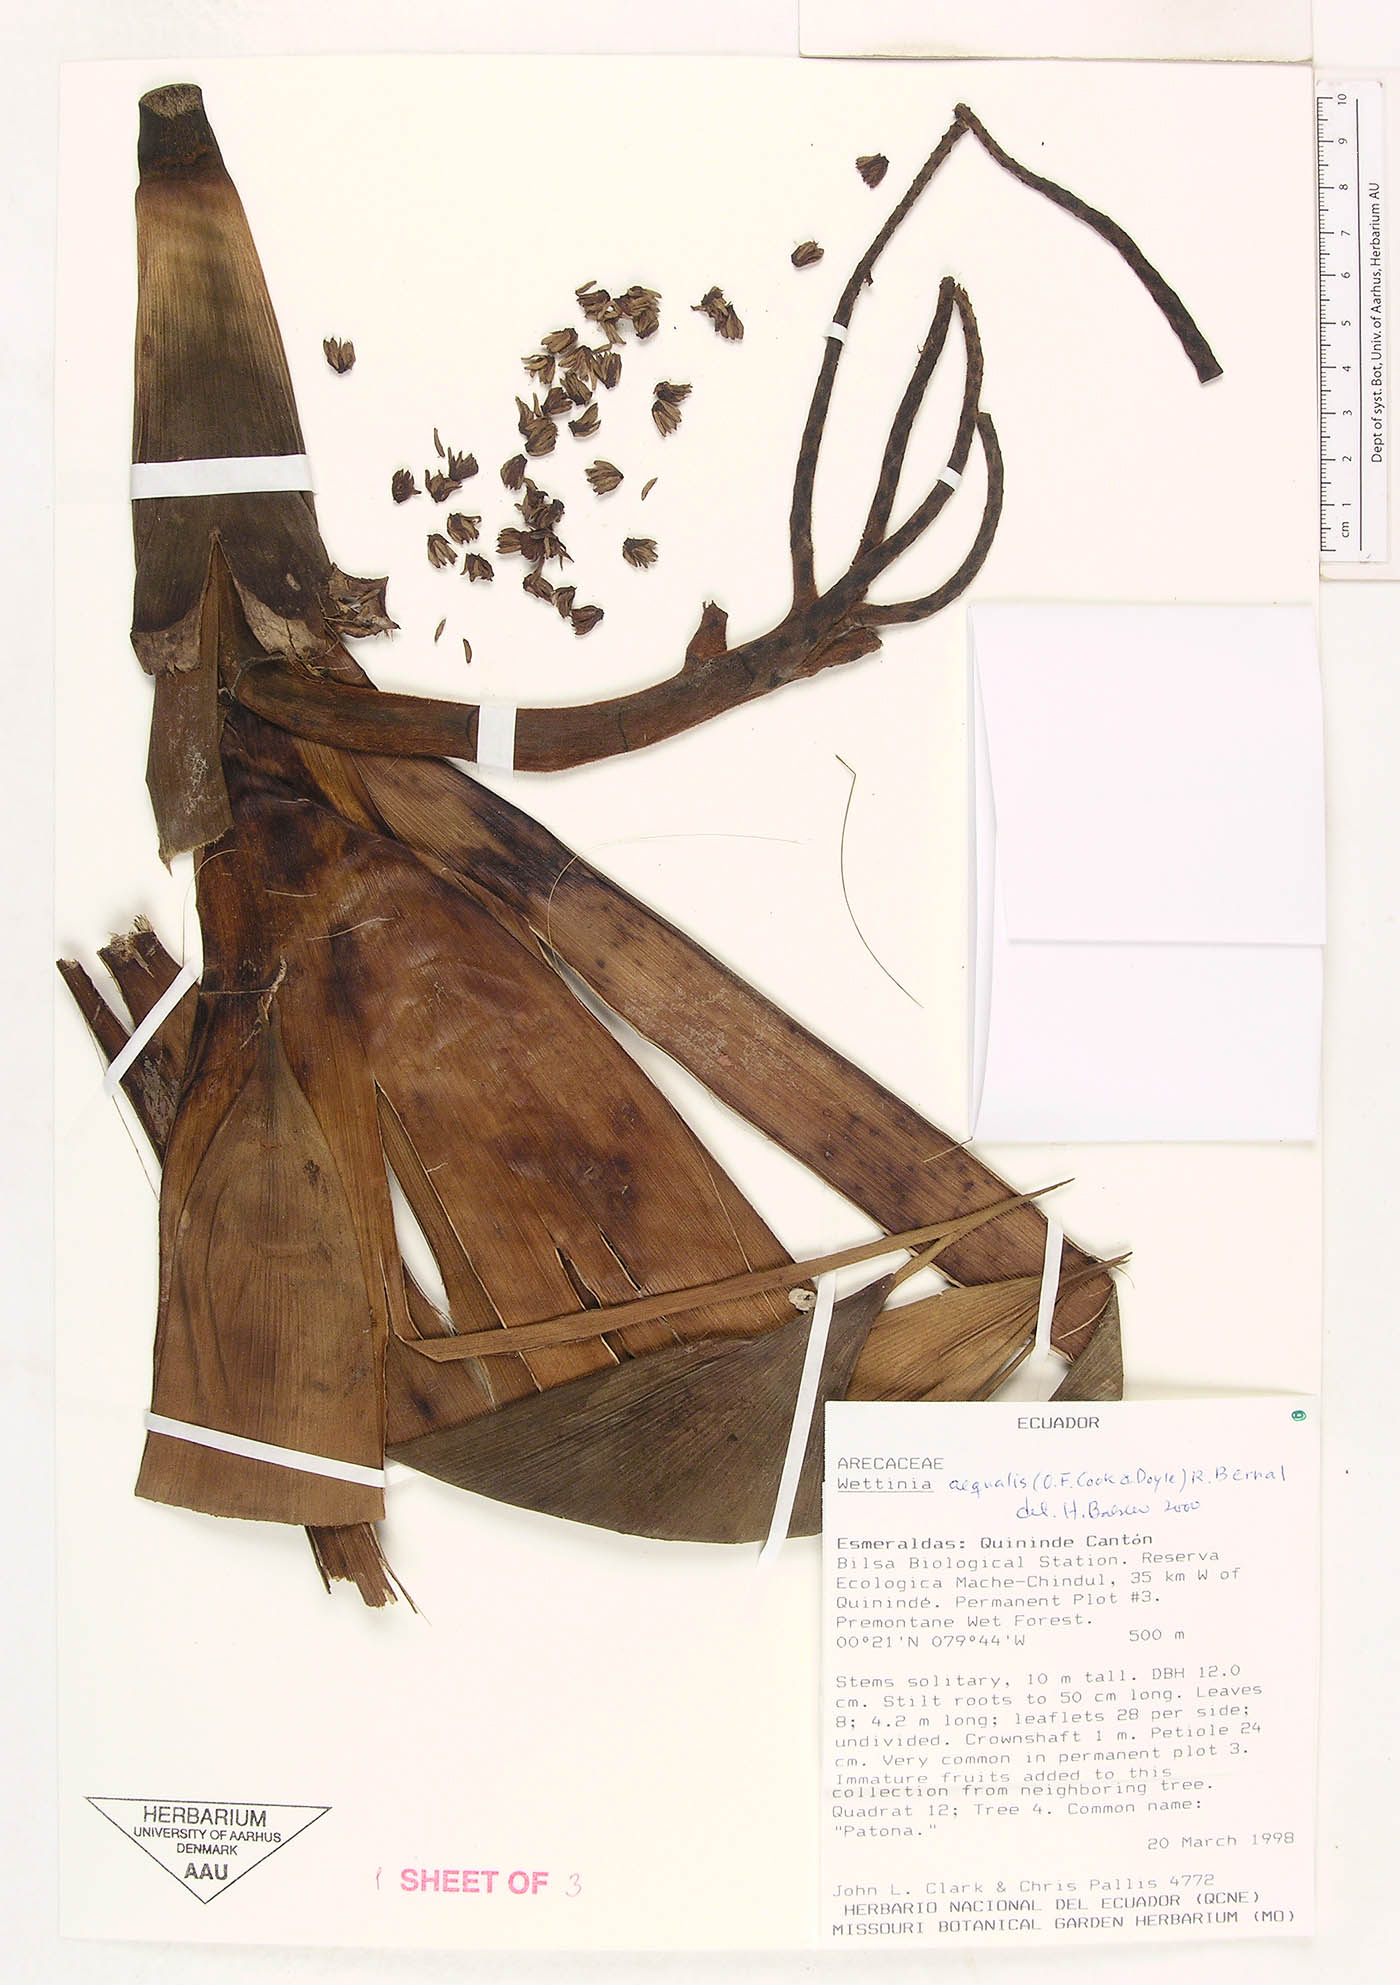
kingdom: Plantae
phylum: Tracheophyta
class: Liliopsida
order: Arecales
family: Arecaceae
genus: Wettinia
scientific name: Wettinia aequalis
